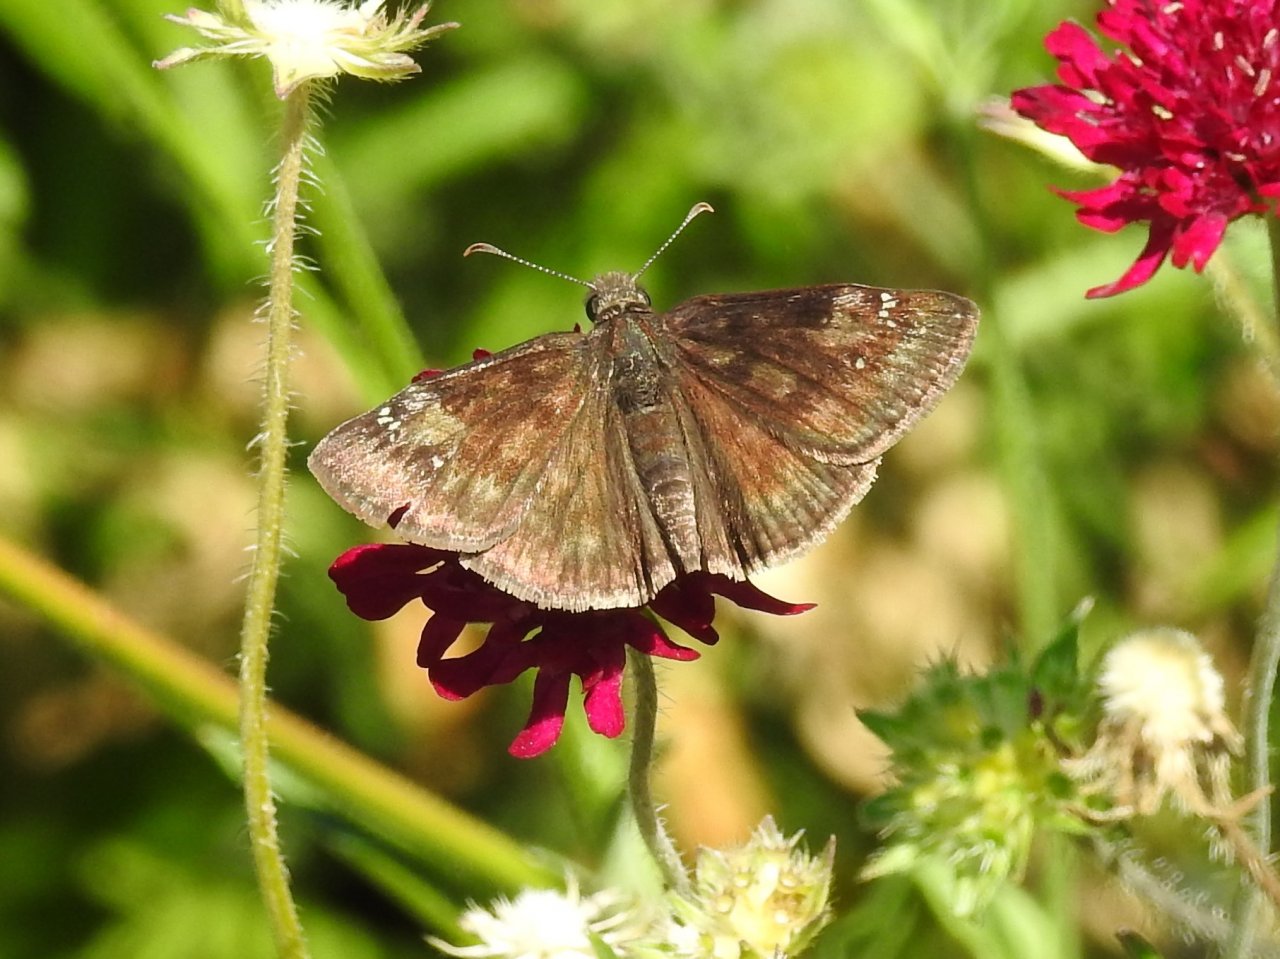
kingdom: Animalia
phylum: Arthropoda
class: Insecta
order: Lepidoptera
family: Hesperiidae
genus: Gesta
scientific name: Gesta
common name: Wild Indigo Duskywing
